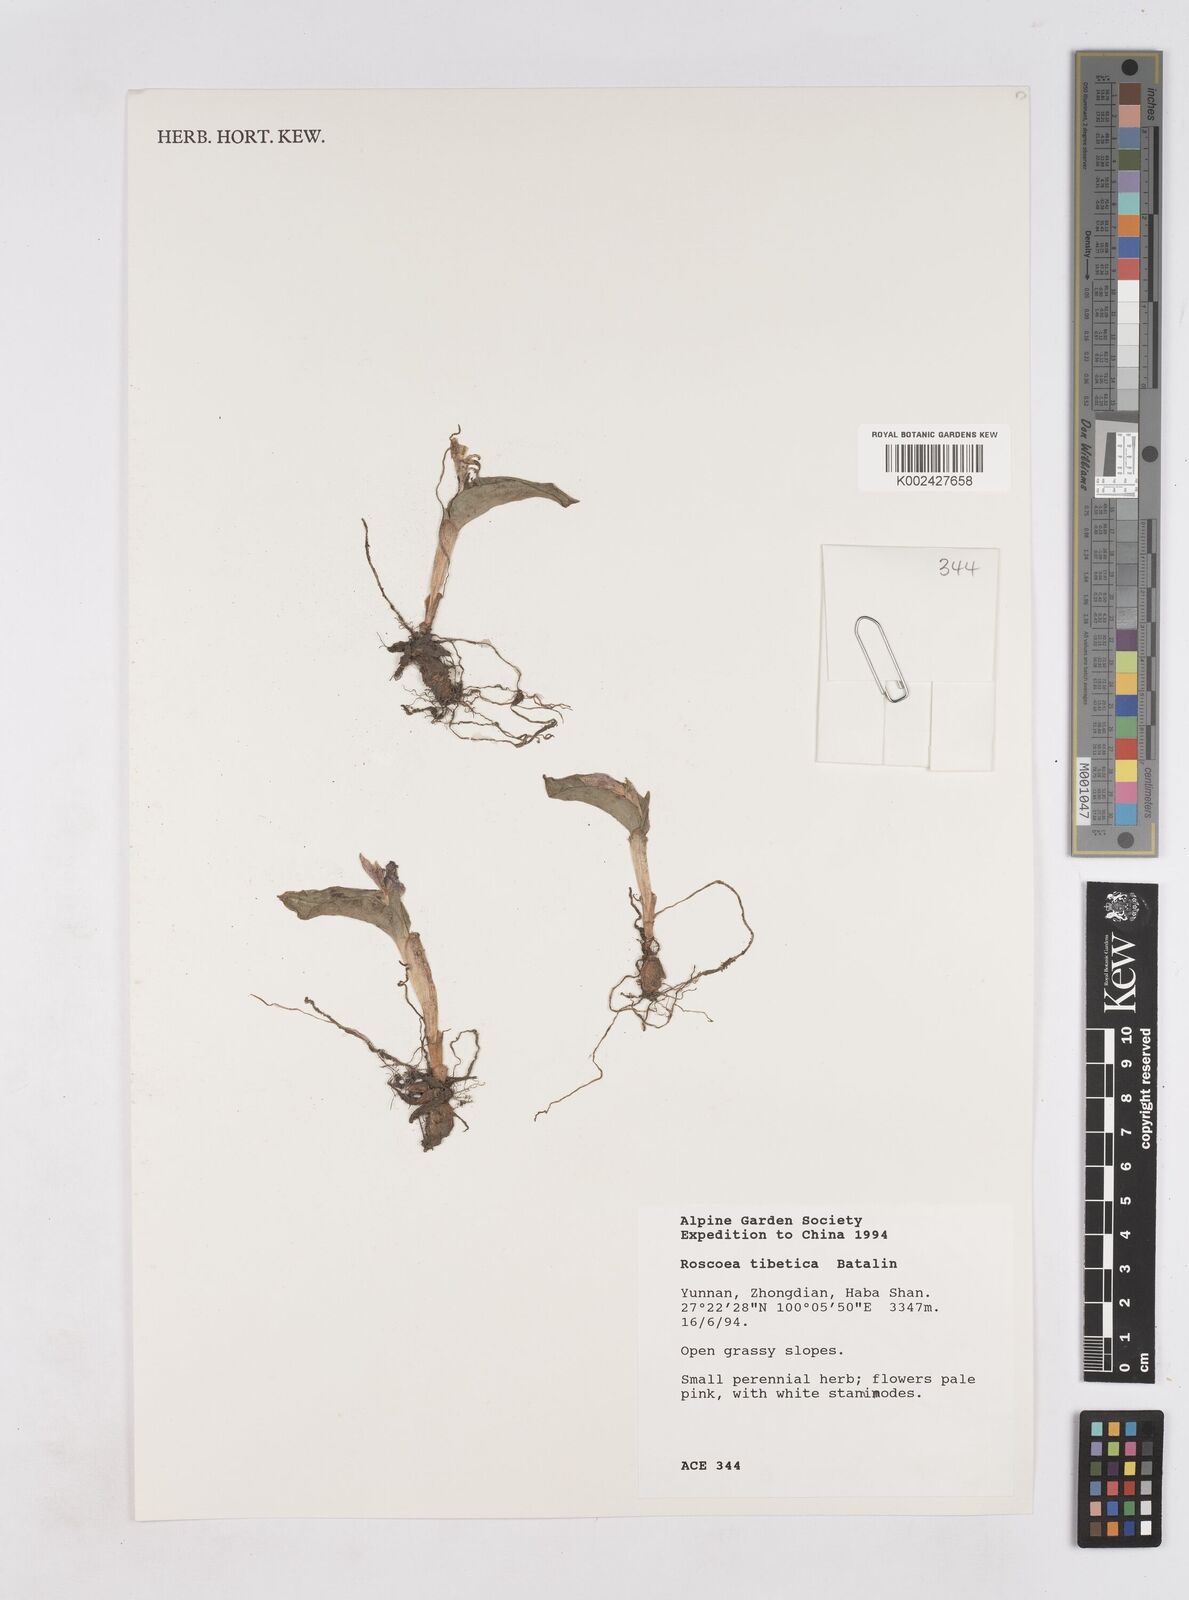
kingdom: Plantae
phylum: Tracheophyta
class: Liliopsida
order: Zingiberales
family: Zingiberaceae
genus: Roscoea
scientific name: Roscoea tibetica
